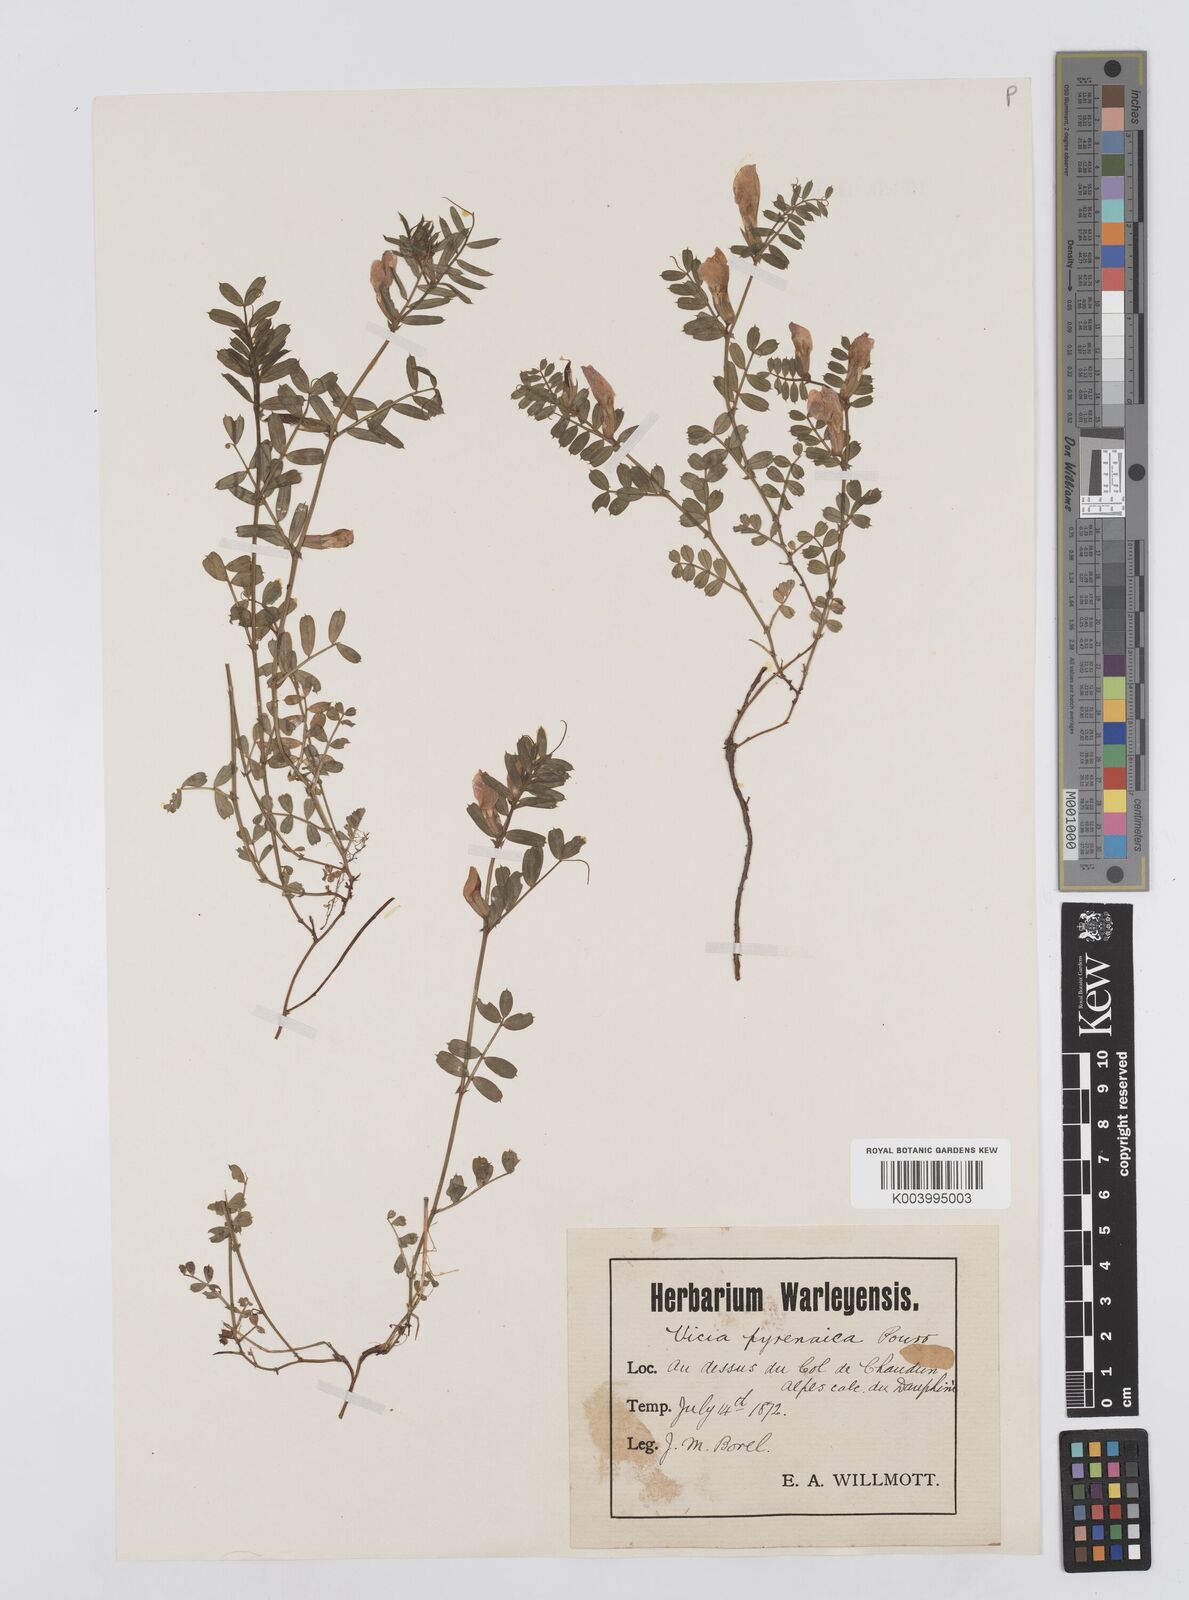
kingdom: Plantae
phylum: Tracheophyta
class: Magnoliopsida
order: Fabales
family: Fabaceae
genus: Vicia
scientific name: Vicia pyrenaica
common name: Pyrenean vetch
